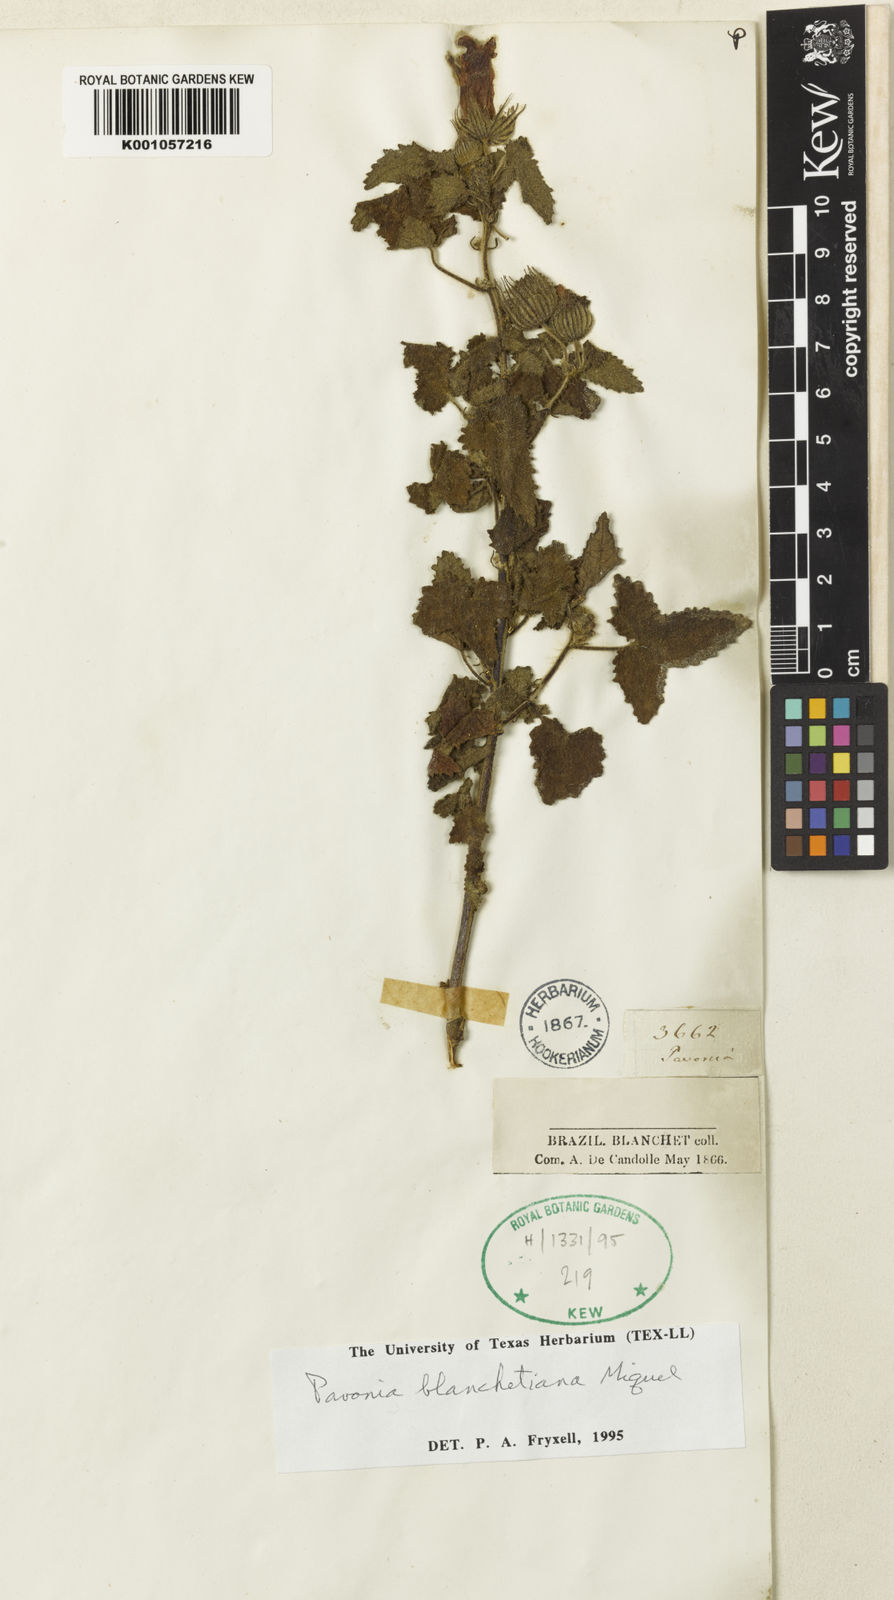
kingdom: Plantae
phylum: Tracheophyta
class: Magnoliopsida
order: Malvales
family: Malvaceae
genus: Pavonia
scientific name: Pavonia blanchetiana
